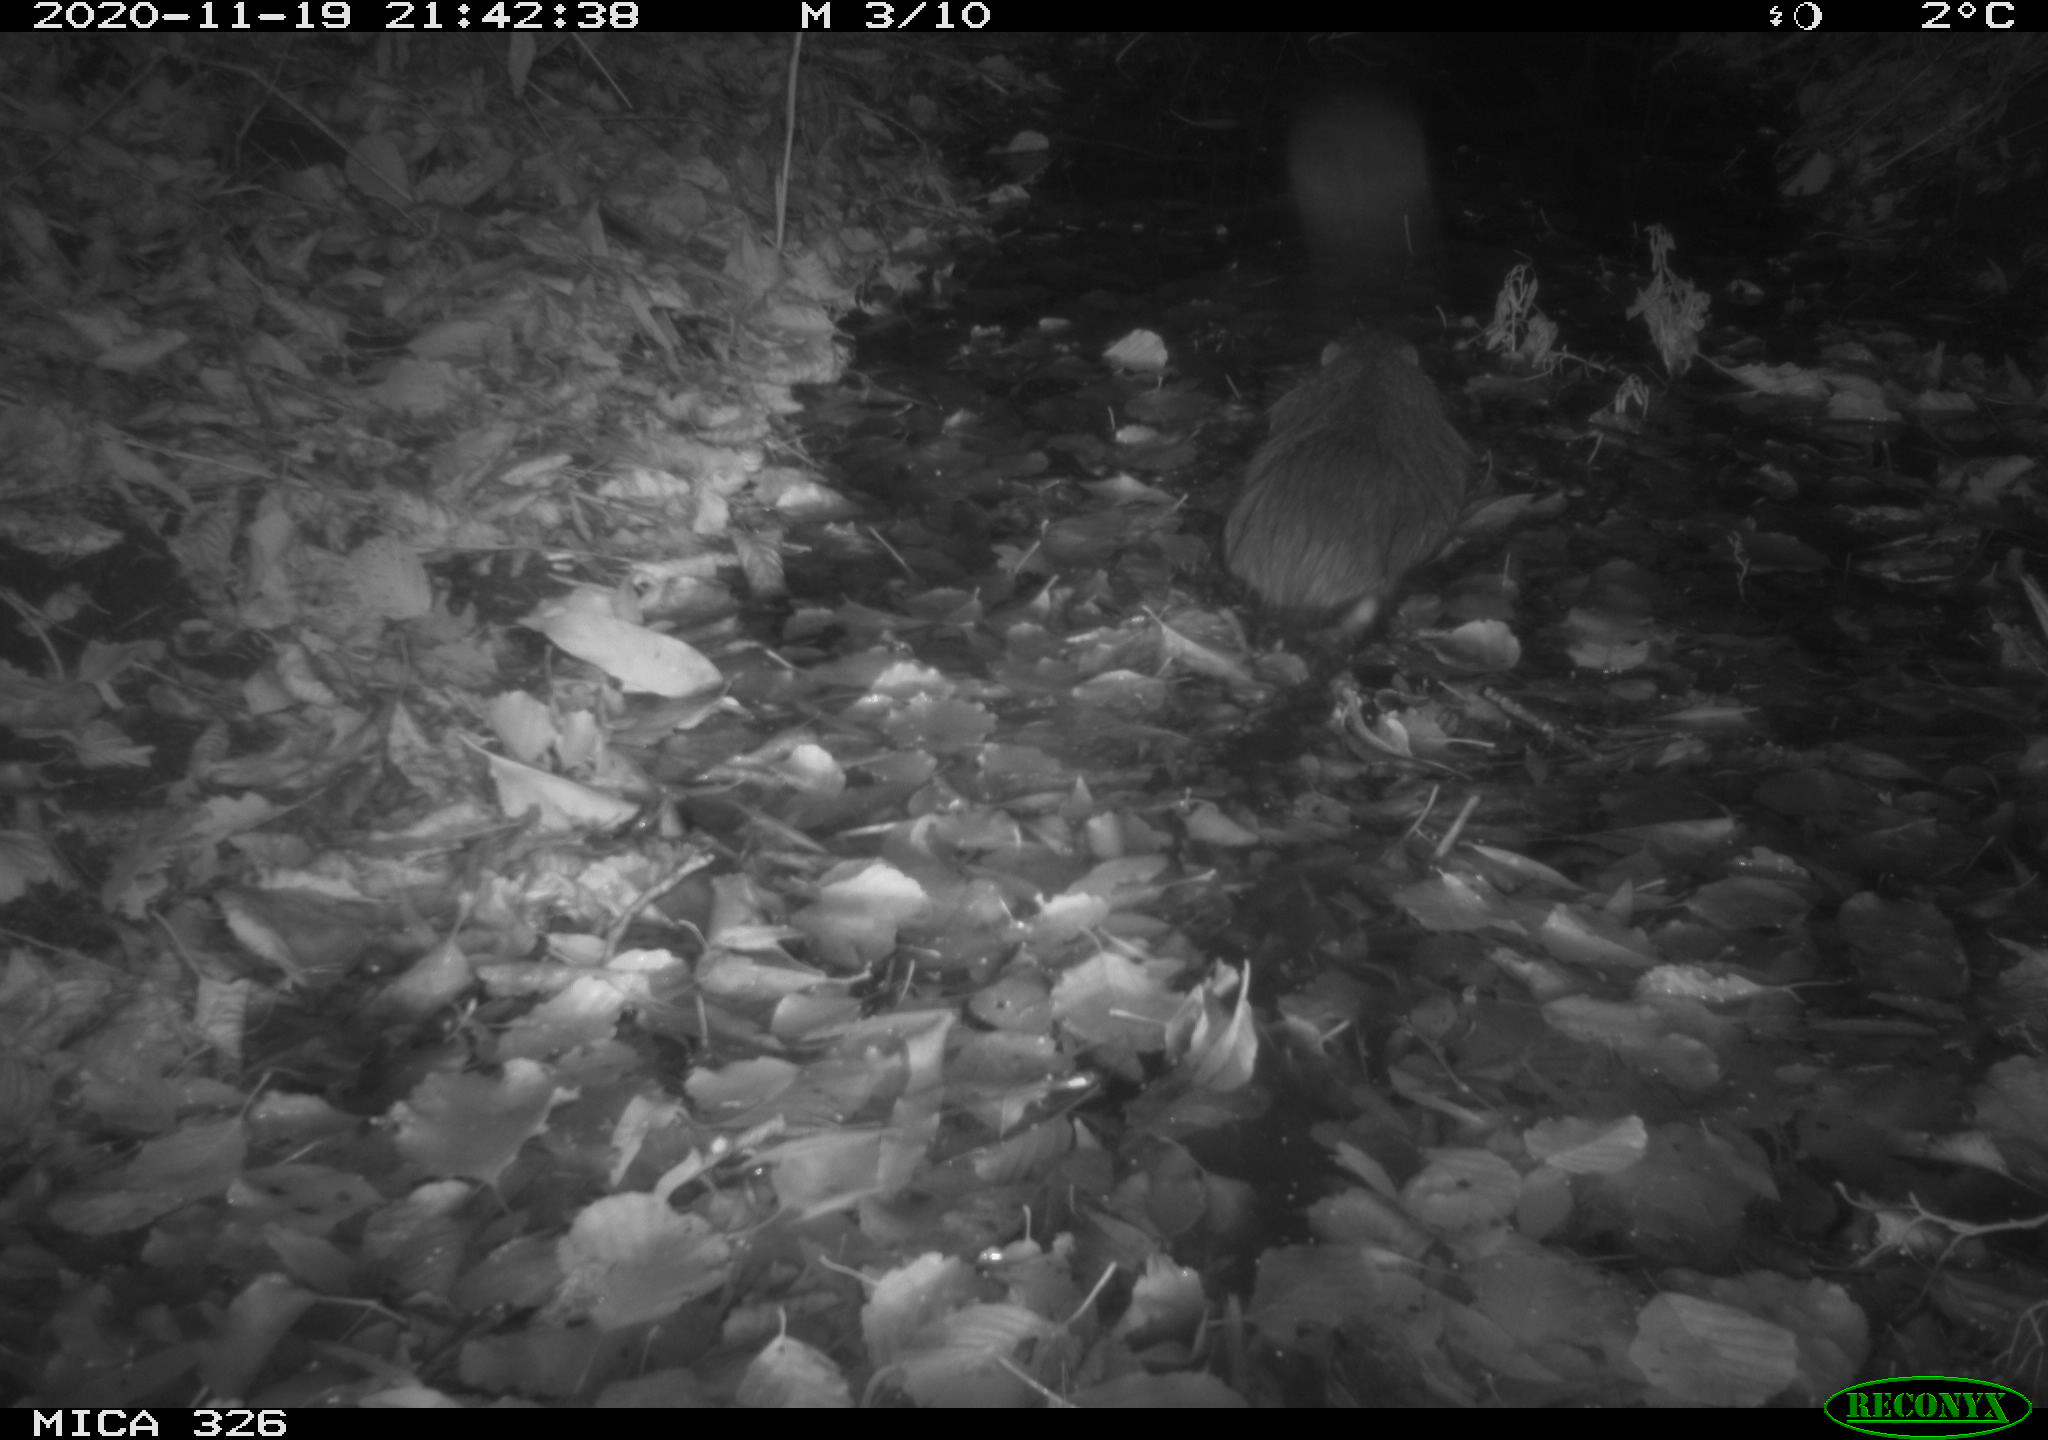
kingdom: Animalia
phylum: Chordata
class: Mammalia
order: Rodentia
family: Myocastoridae
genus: Myocastor
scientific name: Myocastor coypus
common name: Coypu
